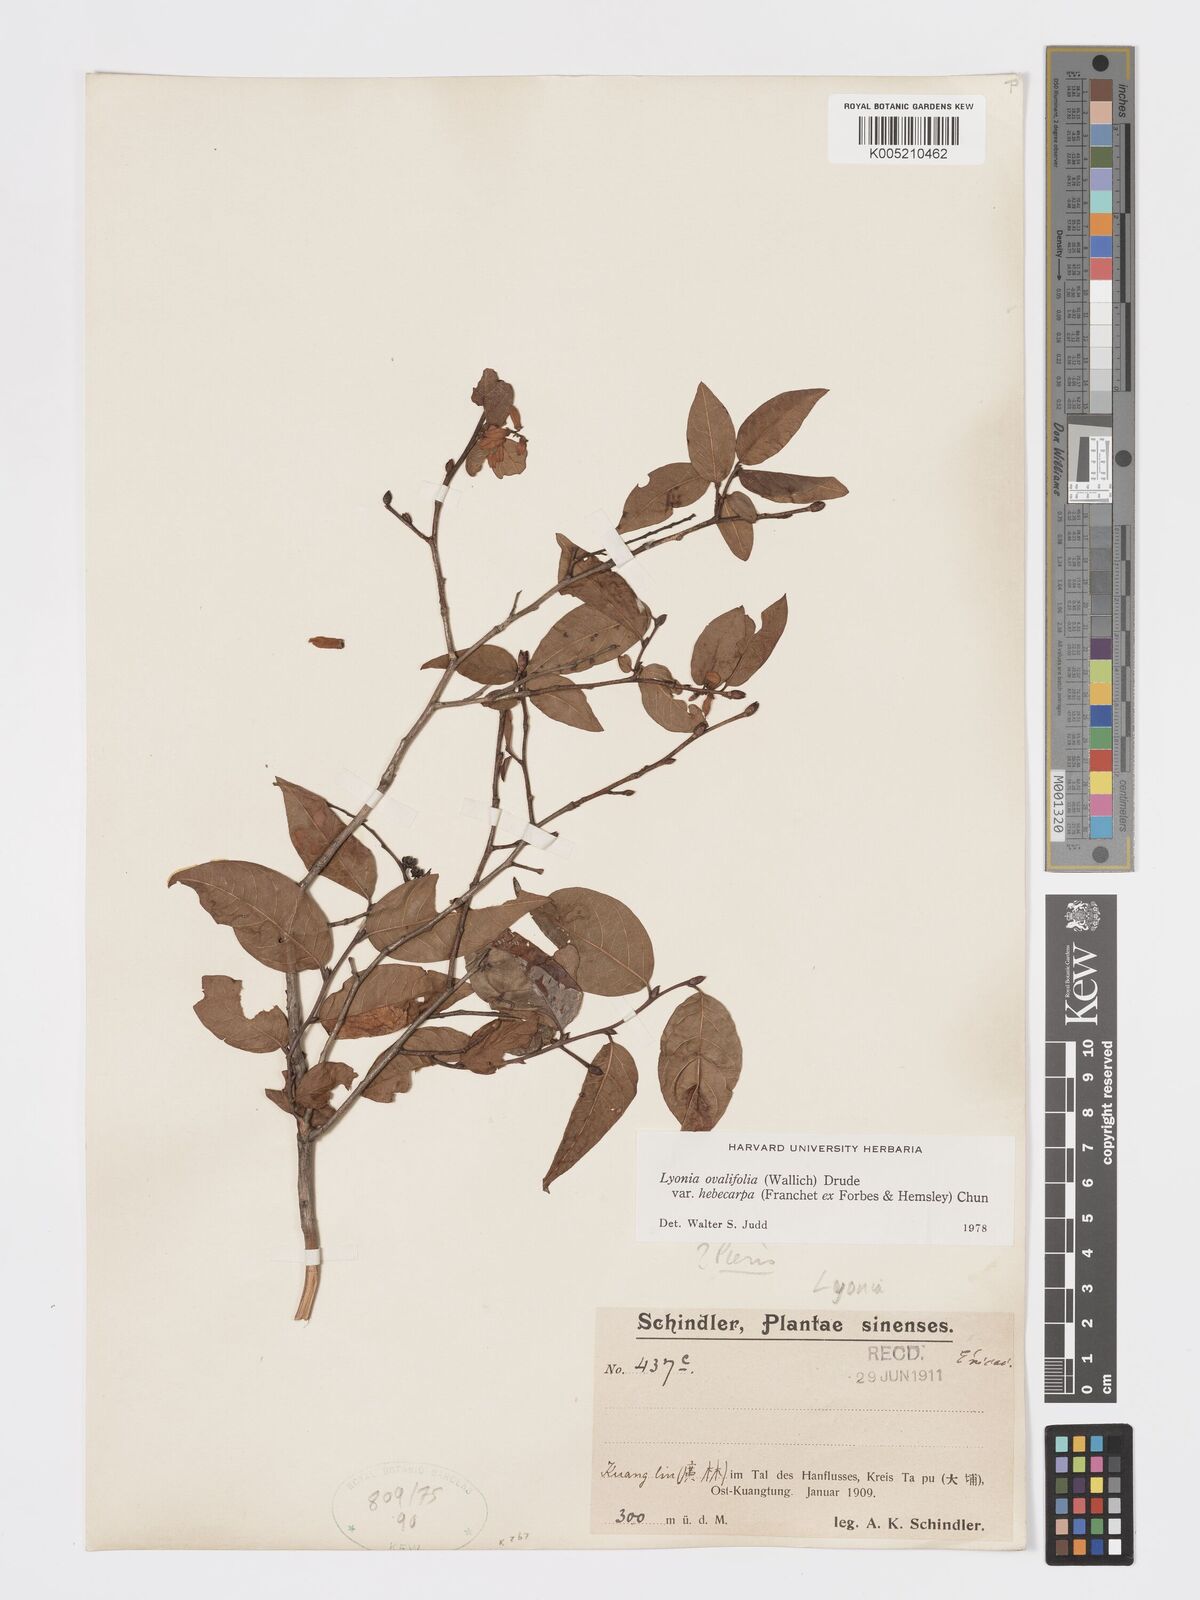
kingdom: Plantae
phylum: Tracheophyta
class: Magnoliopsida
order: Ericales
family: Ericaceae
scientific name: Ericaceae
